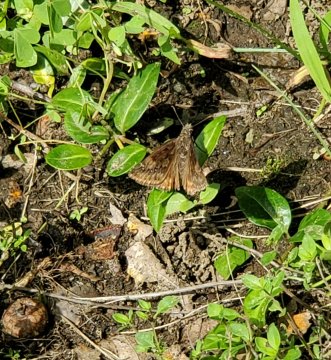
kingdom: Animalia
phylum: Arthropoda
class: Insecta
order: Lepidoptera
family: Hesperiidae
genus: Erynnis
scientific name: Erynnis
